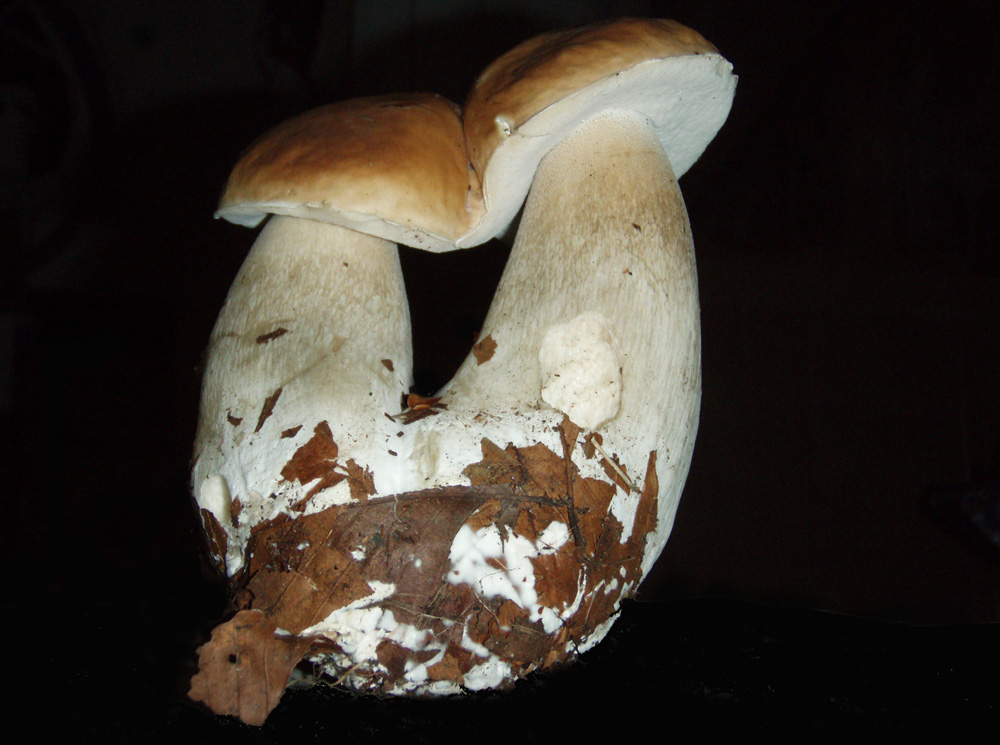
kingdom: Fungi
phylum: Basidiomycota
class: Agaricomycetes
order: Boletales
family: Boletaceae
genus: Boletus
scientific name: Boletus edulis
